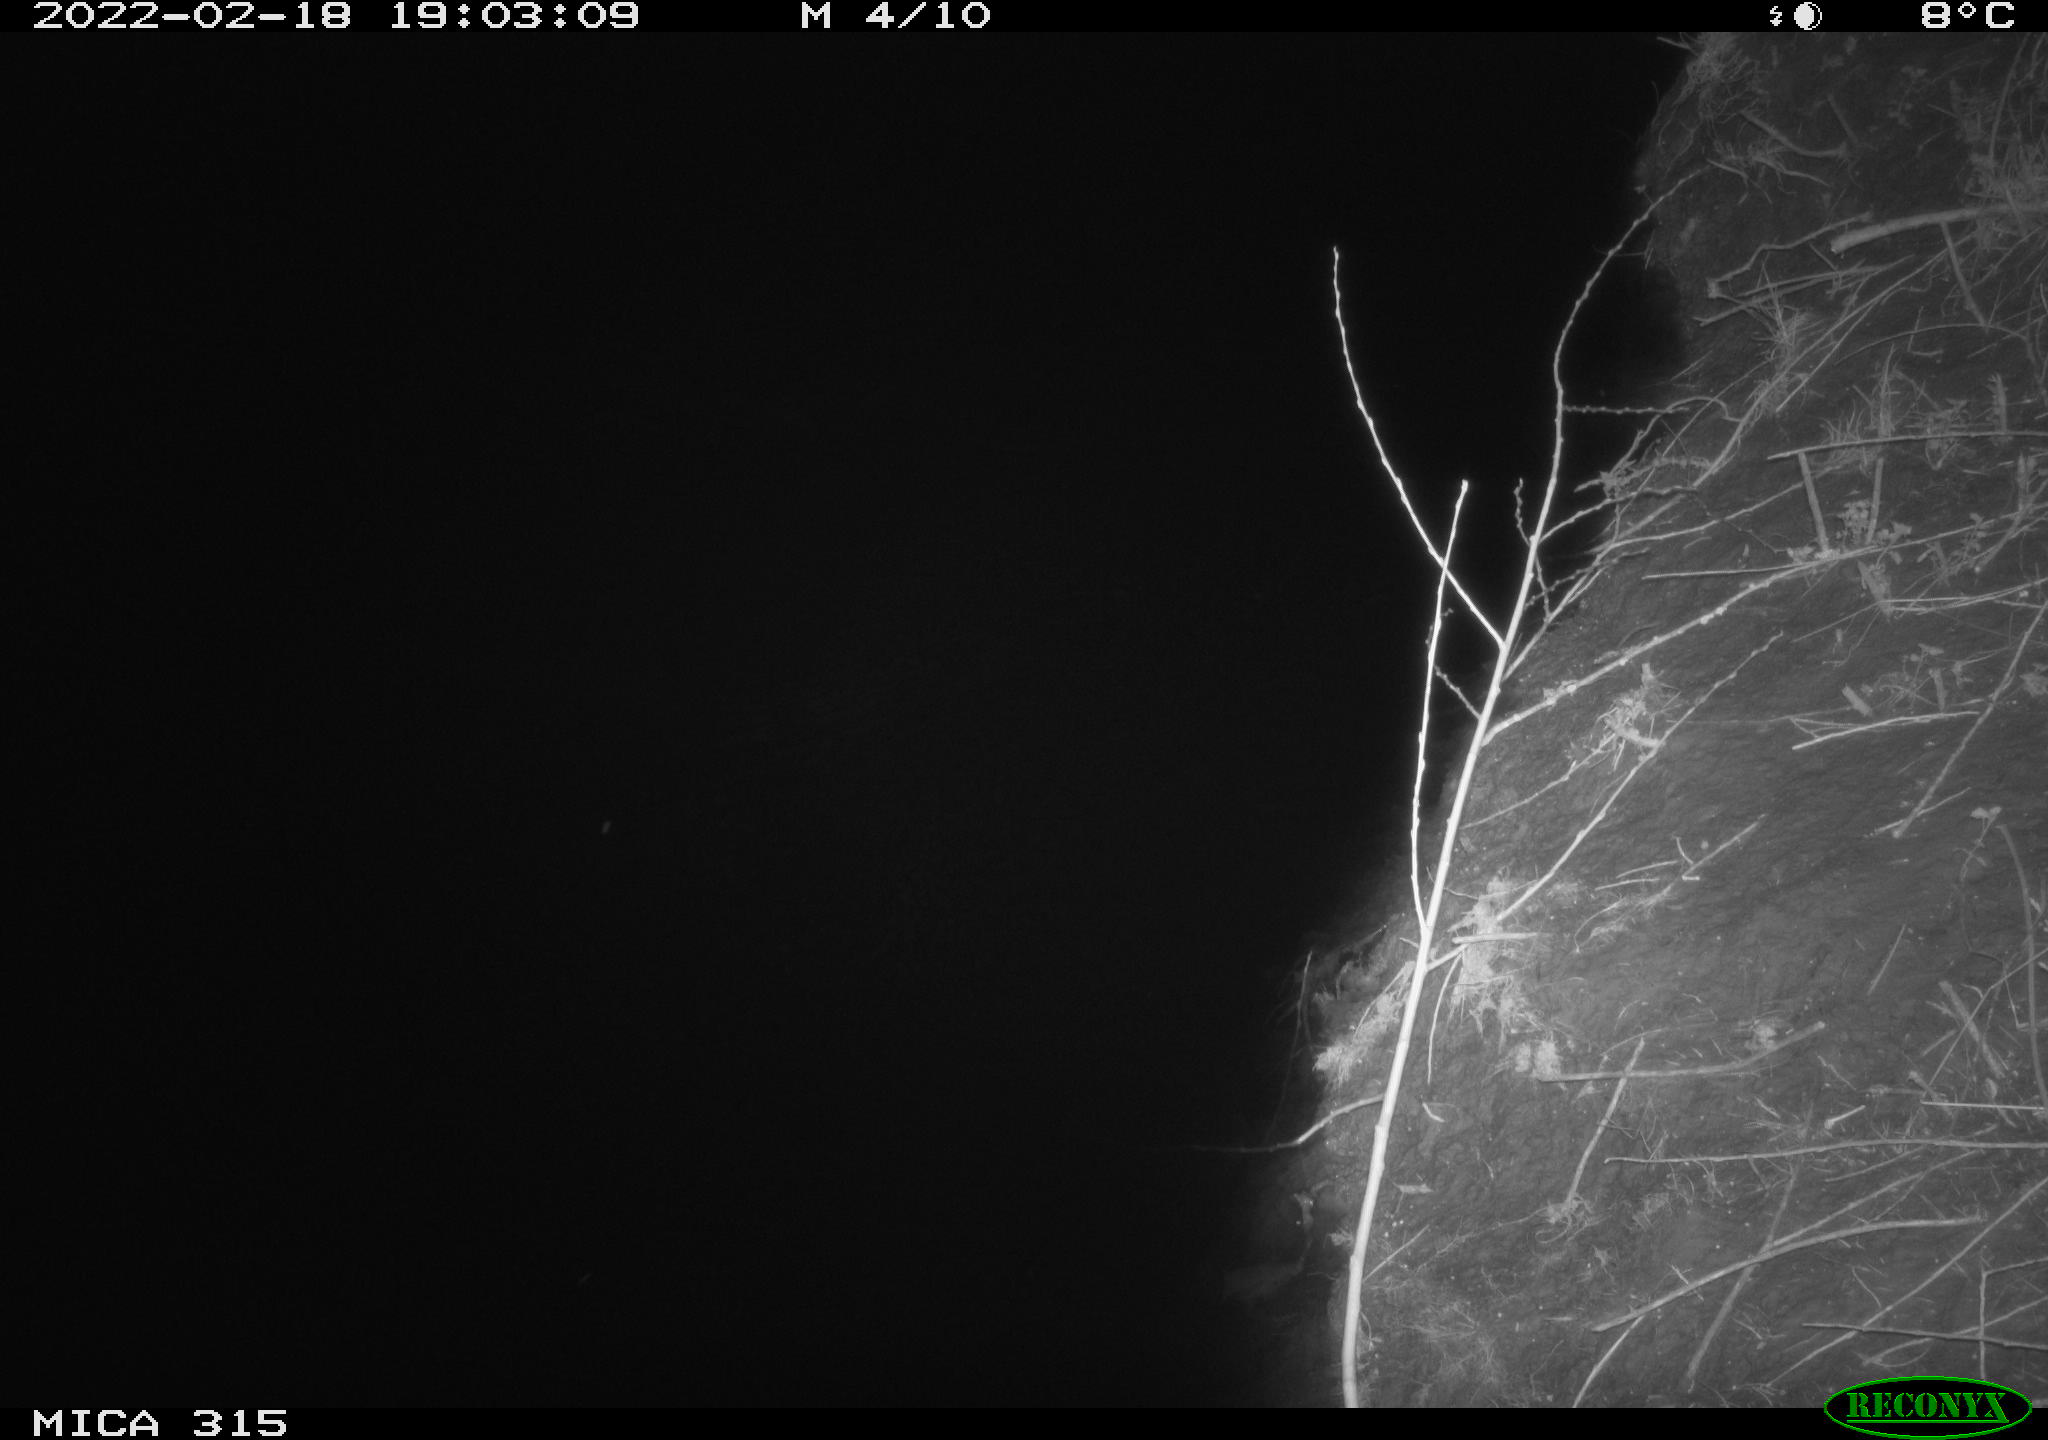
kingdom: Animalia
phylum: Chordata
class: Mammalia
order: Rodentia
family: Muridae
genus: Rattus
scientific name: Rattus norvegicus
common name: Brown rat
